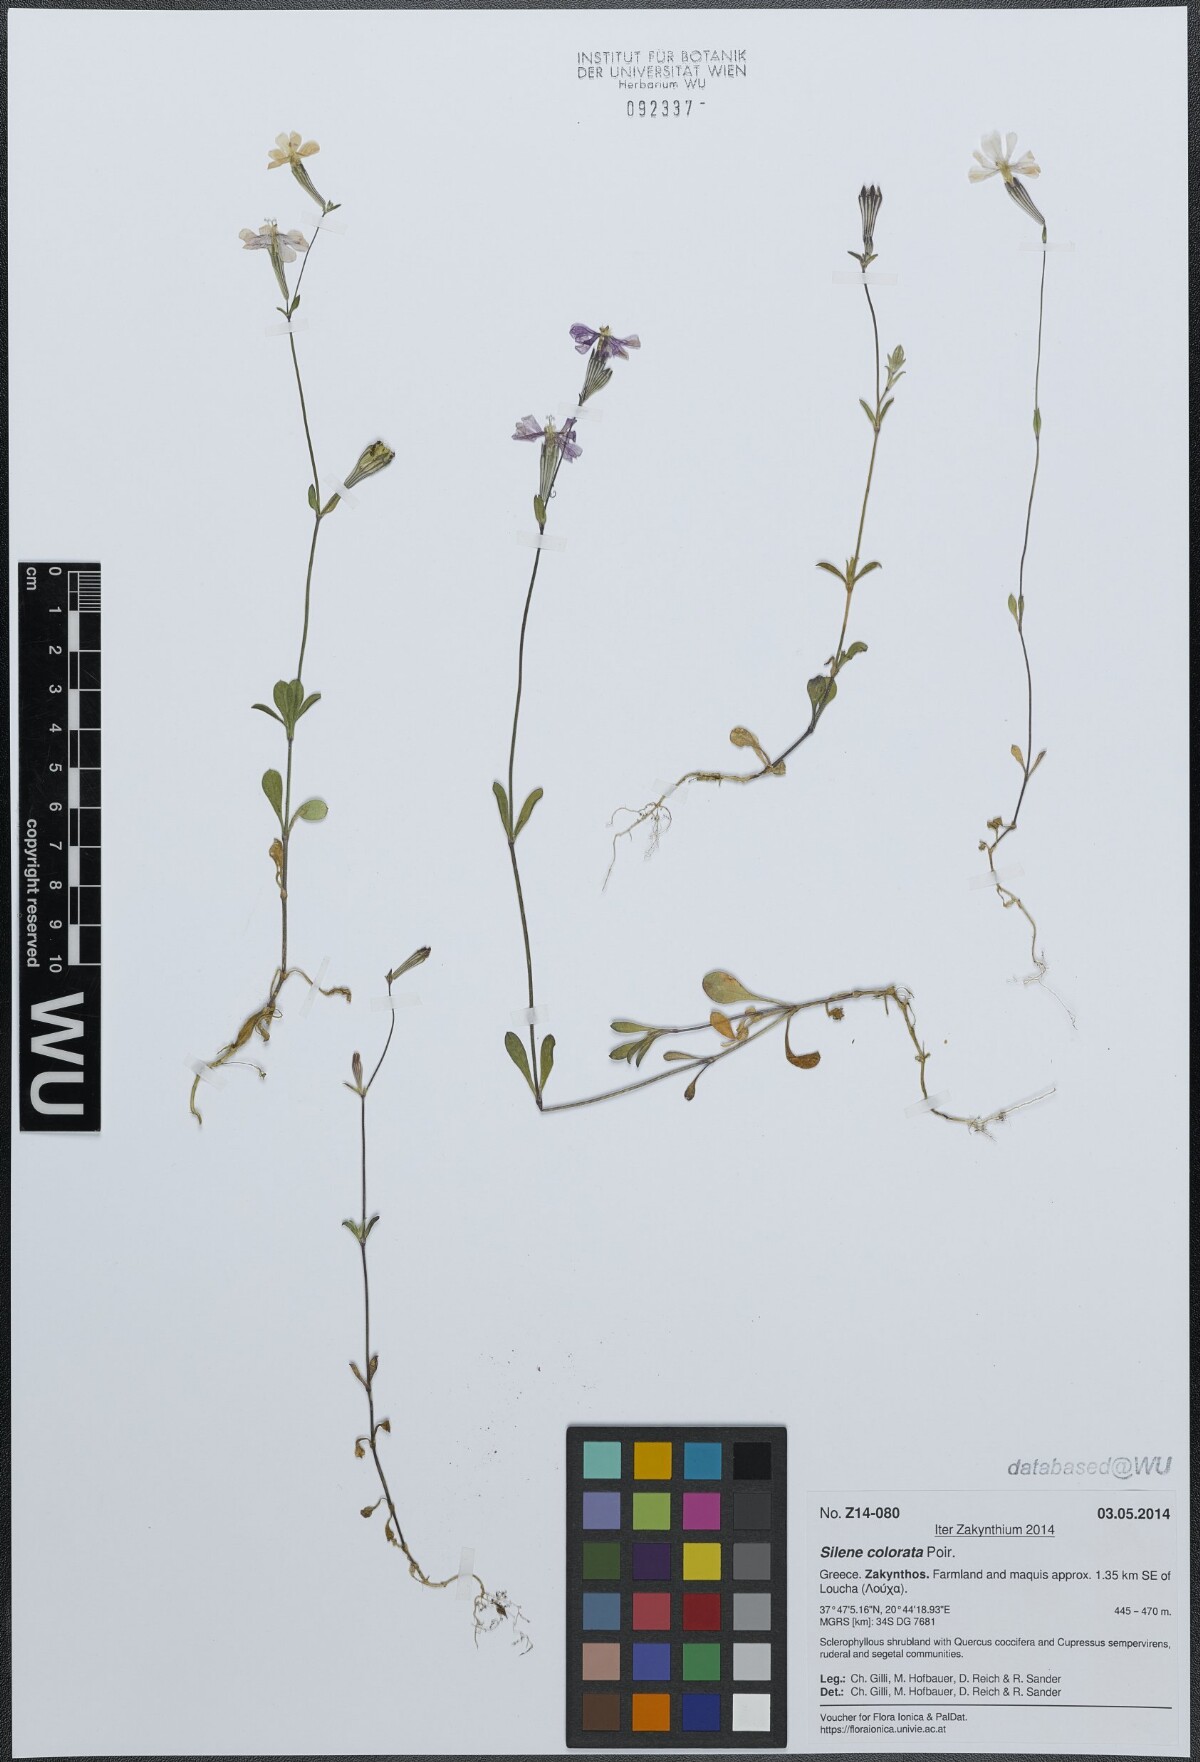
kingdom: Plantae
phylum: Tracheophyta
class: Magnoliopsida
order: Caryophyllales
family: Caryophyllaceae
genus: Silene
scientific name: Silene colorata
